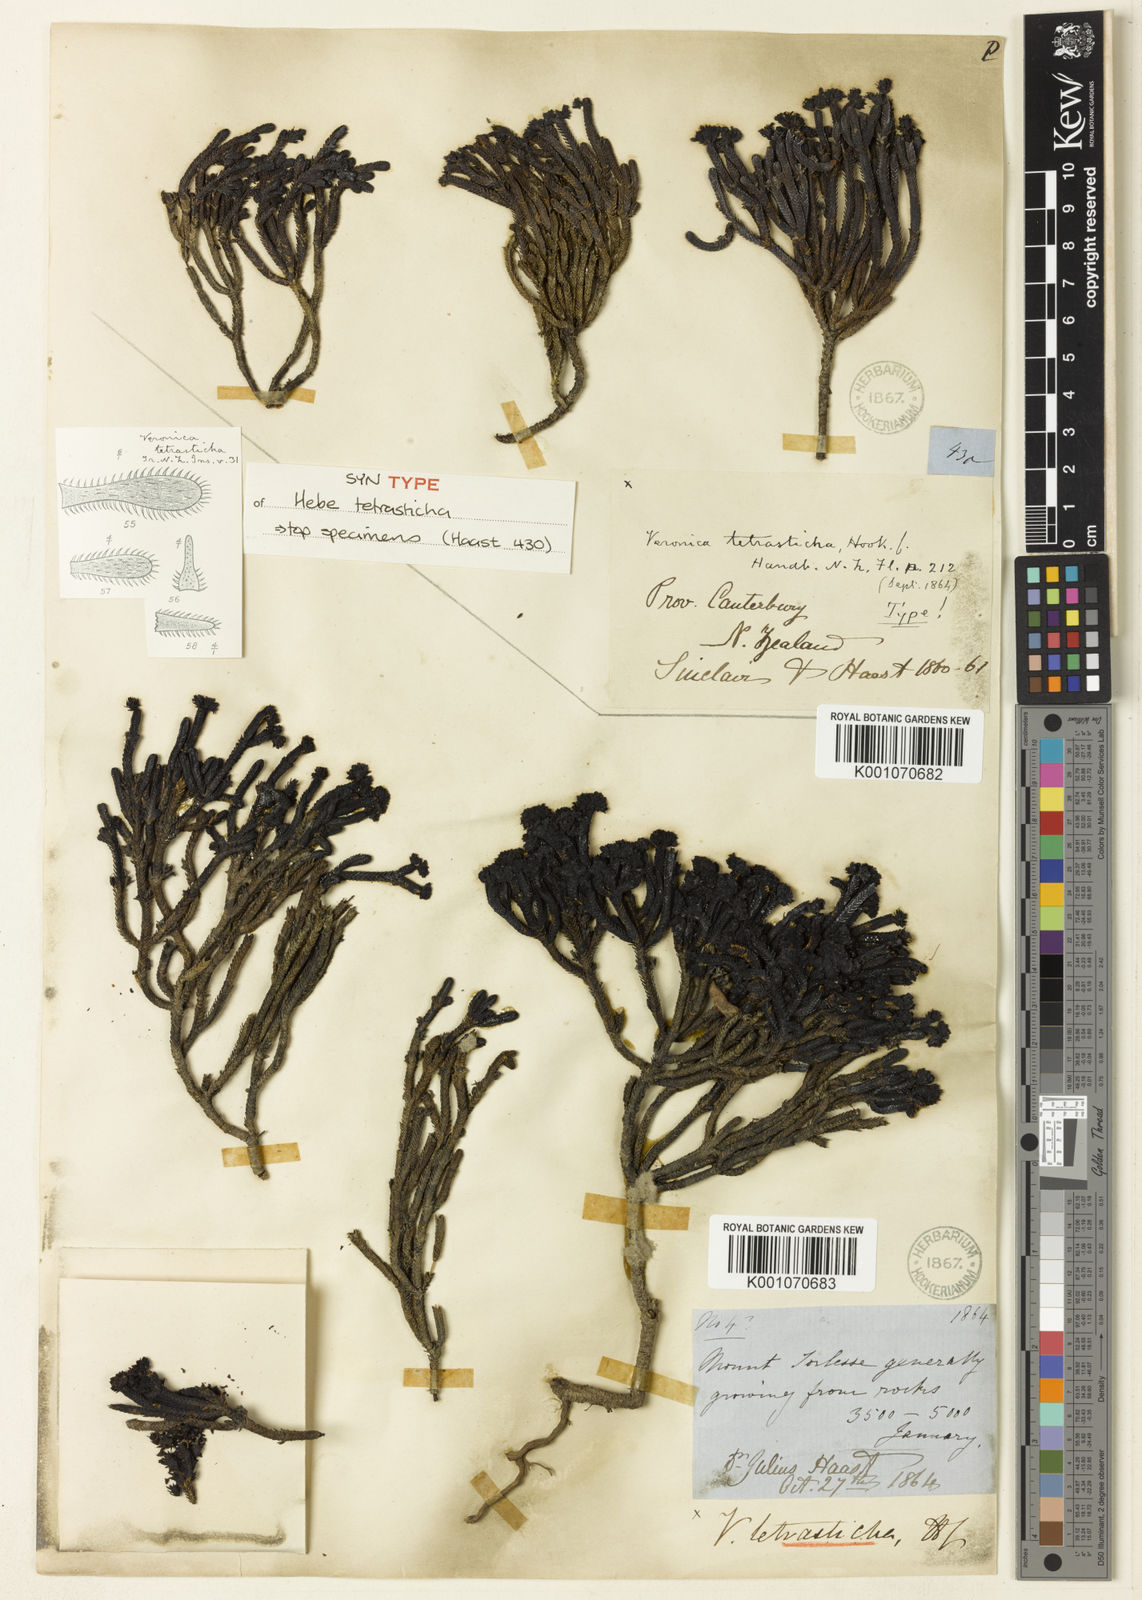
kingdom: Plantae
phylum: Tracheophyta
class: Magnoliopsida
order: Lamiales
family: Plantaginaceae
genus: Veronica
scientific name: Veronica
